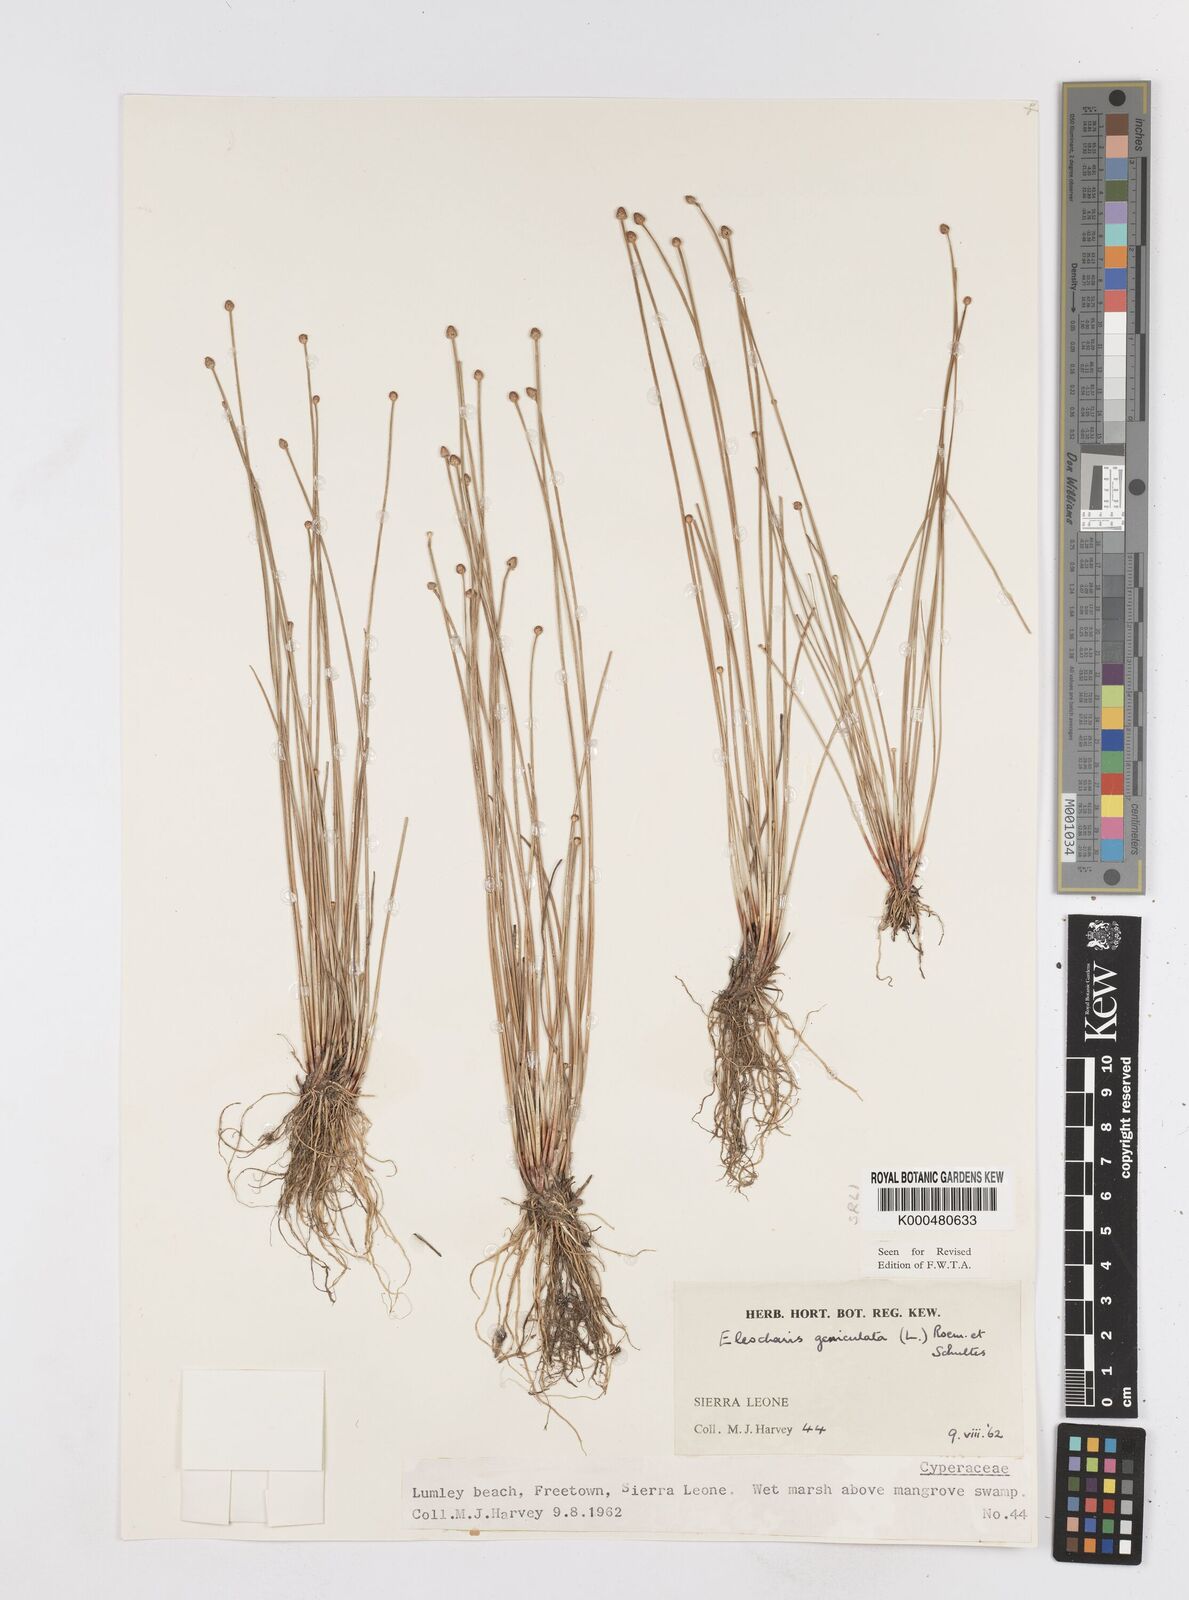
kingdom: Plantae
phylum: Tracheophyta
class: Liliopsida
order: Poales
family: Cyperaceae
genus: Eleocharis
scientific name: Eleocharis geniculata
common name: Canada spikesedge
